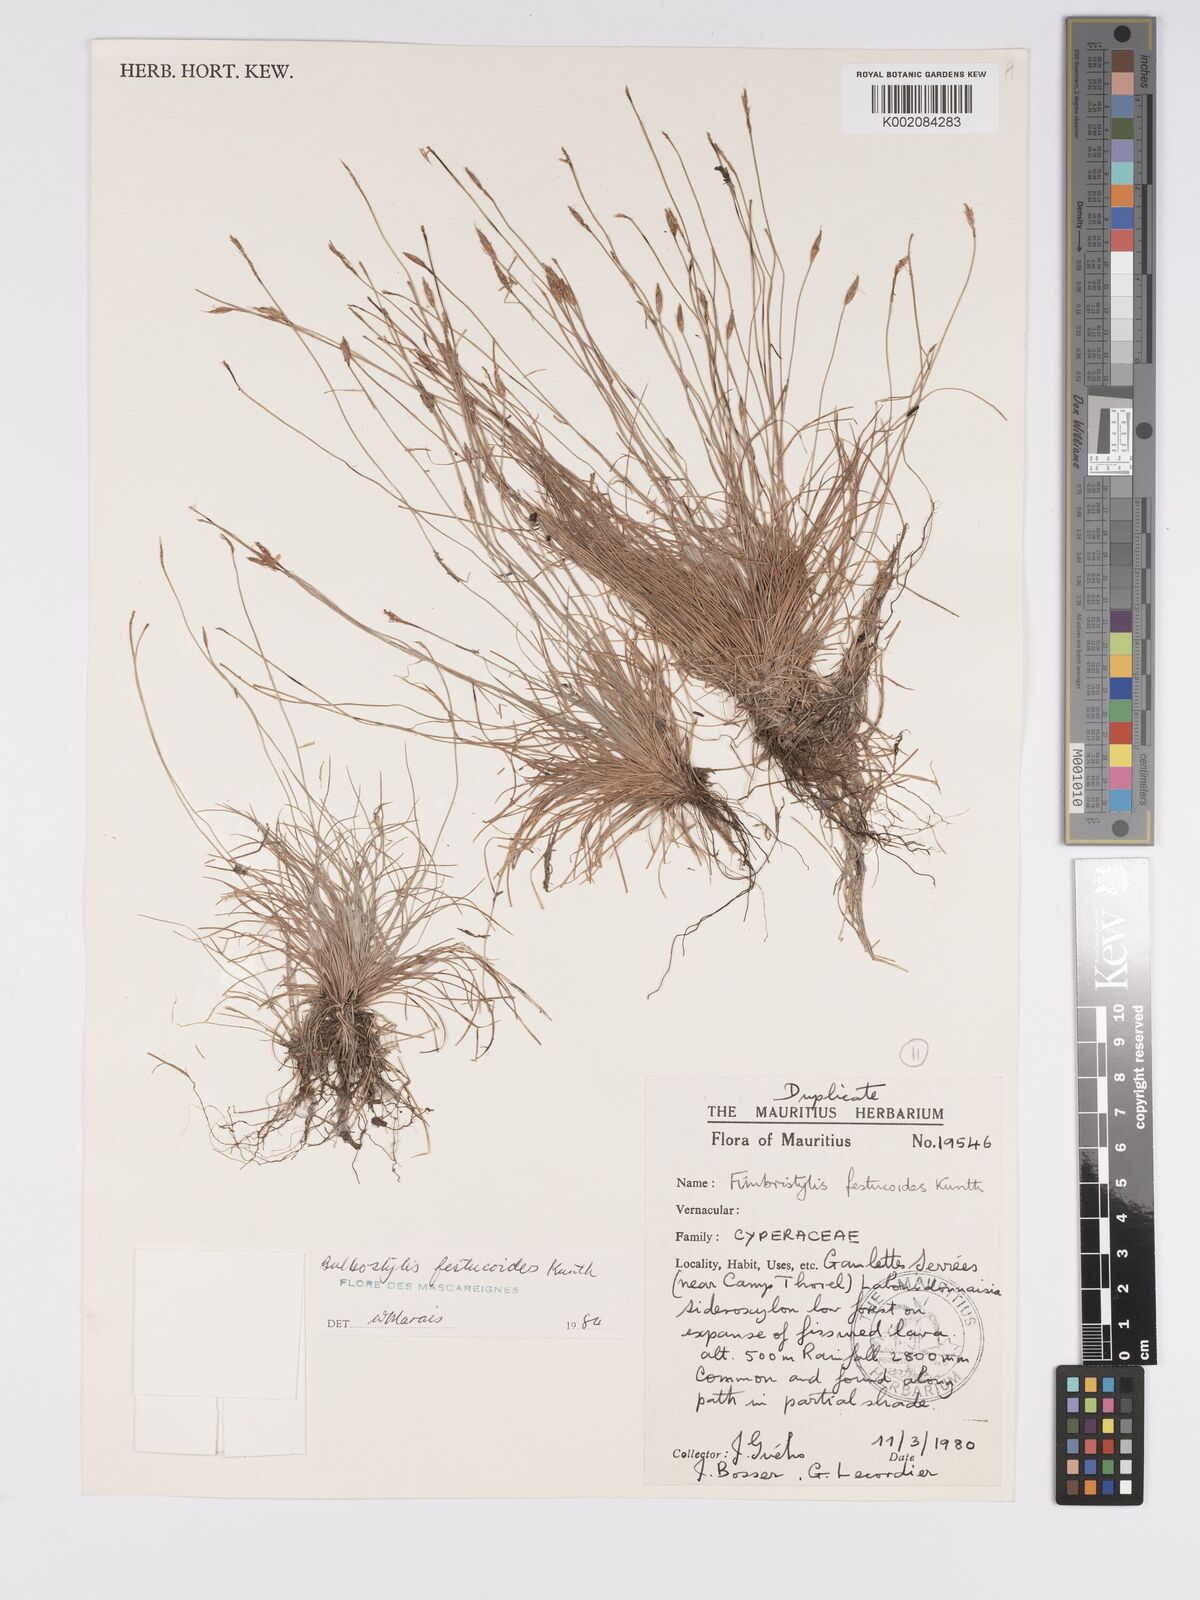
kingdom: Plantae
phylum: Tracheophyta
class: Liliopsida
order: Poales
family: Cyperaceae
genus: Bulbostylis
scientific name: Bulbostylis festucoides
